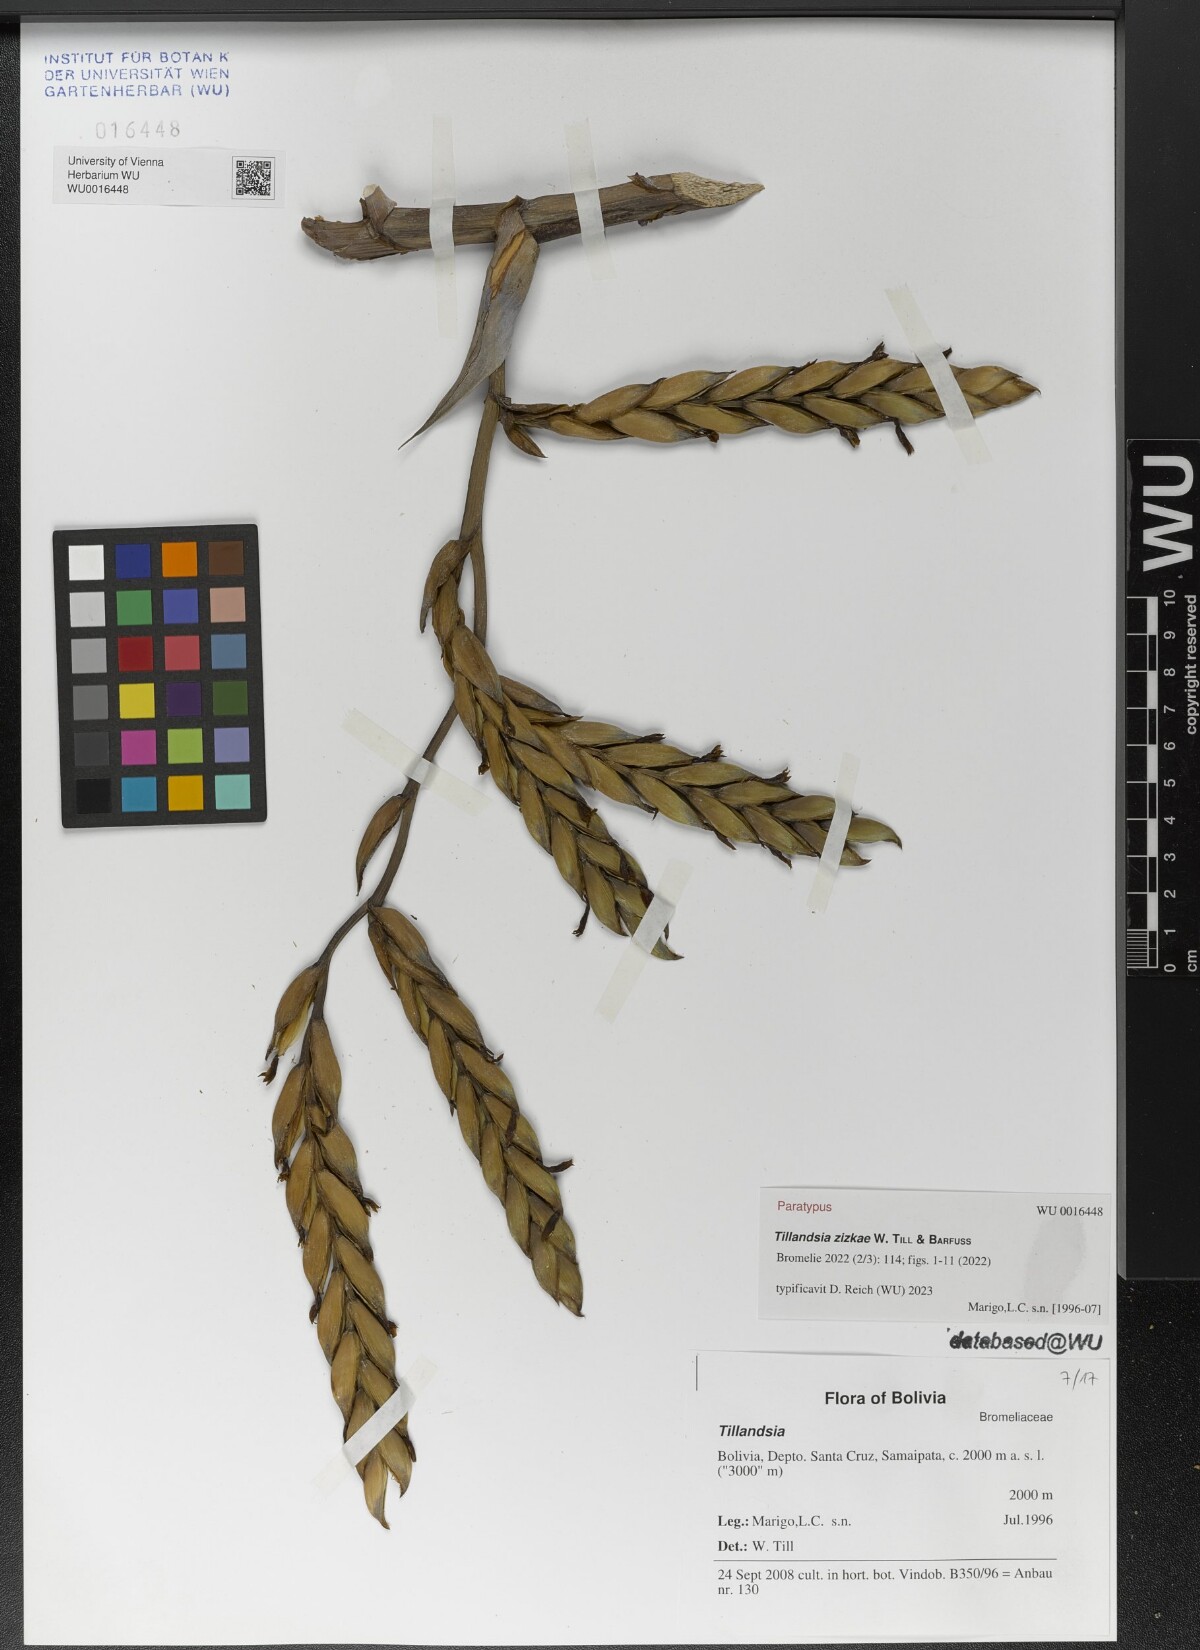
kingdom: Plantae
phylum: Tracheophyta
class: Liliopsida
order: Poales
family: Bromeliaceae
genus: Tillandsia
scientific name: Tillandsia
